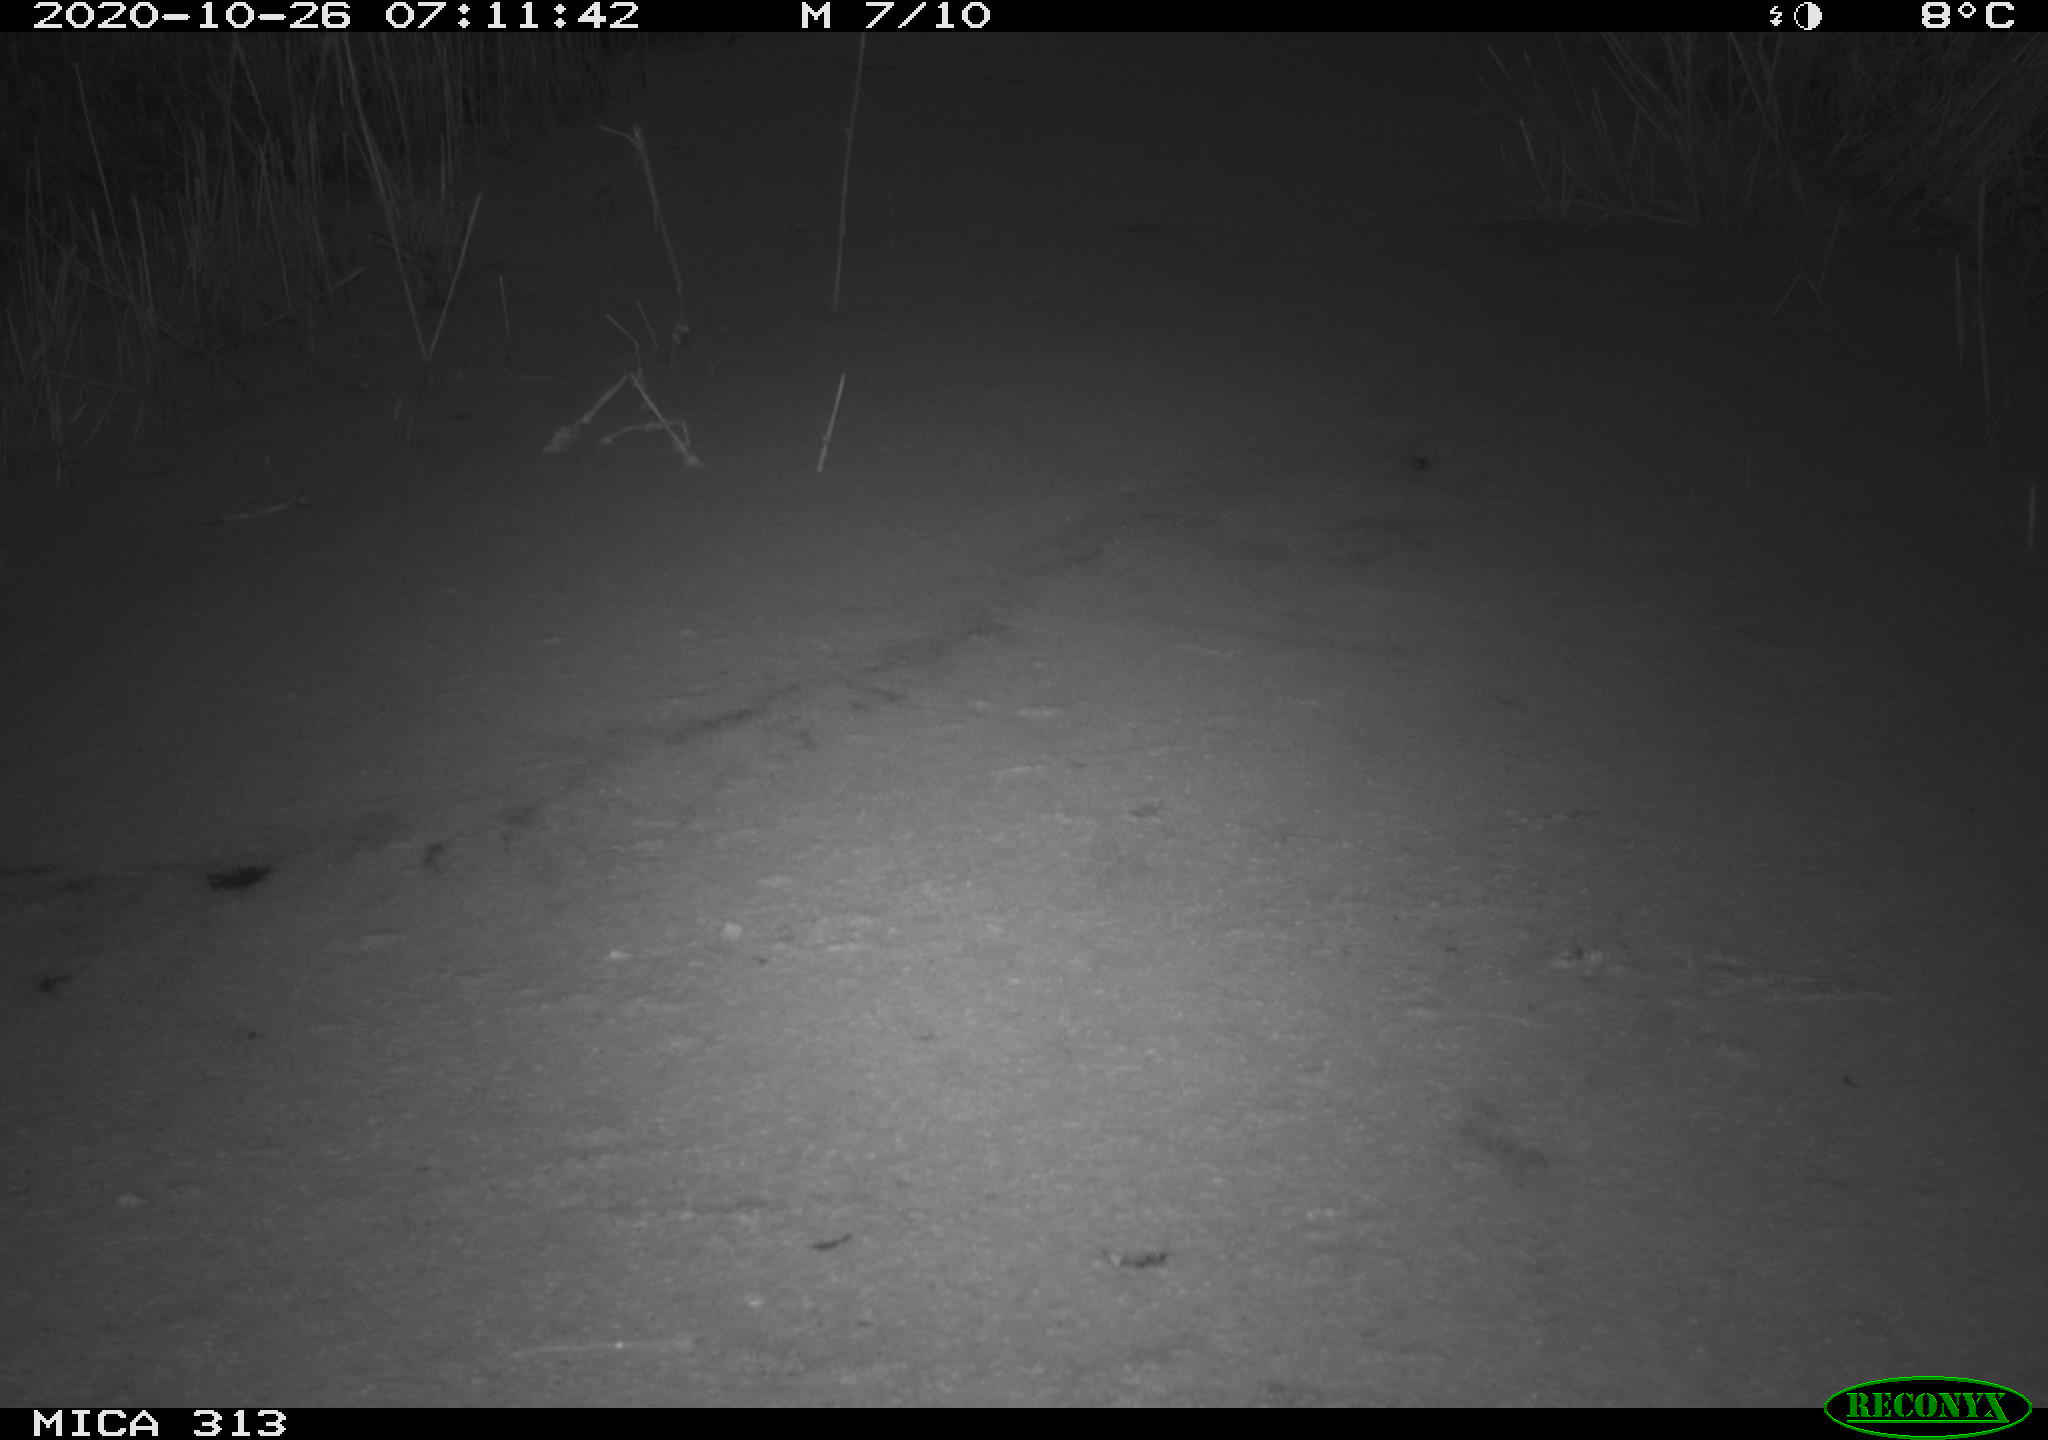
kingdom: Animalia
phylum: Chordata
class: Aves
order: Gruiformes
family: Rallidae
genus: Gallinula
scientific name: Gallinula chloropus
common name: Common moorhen
